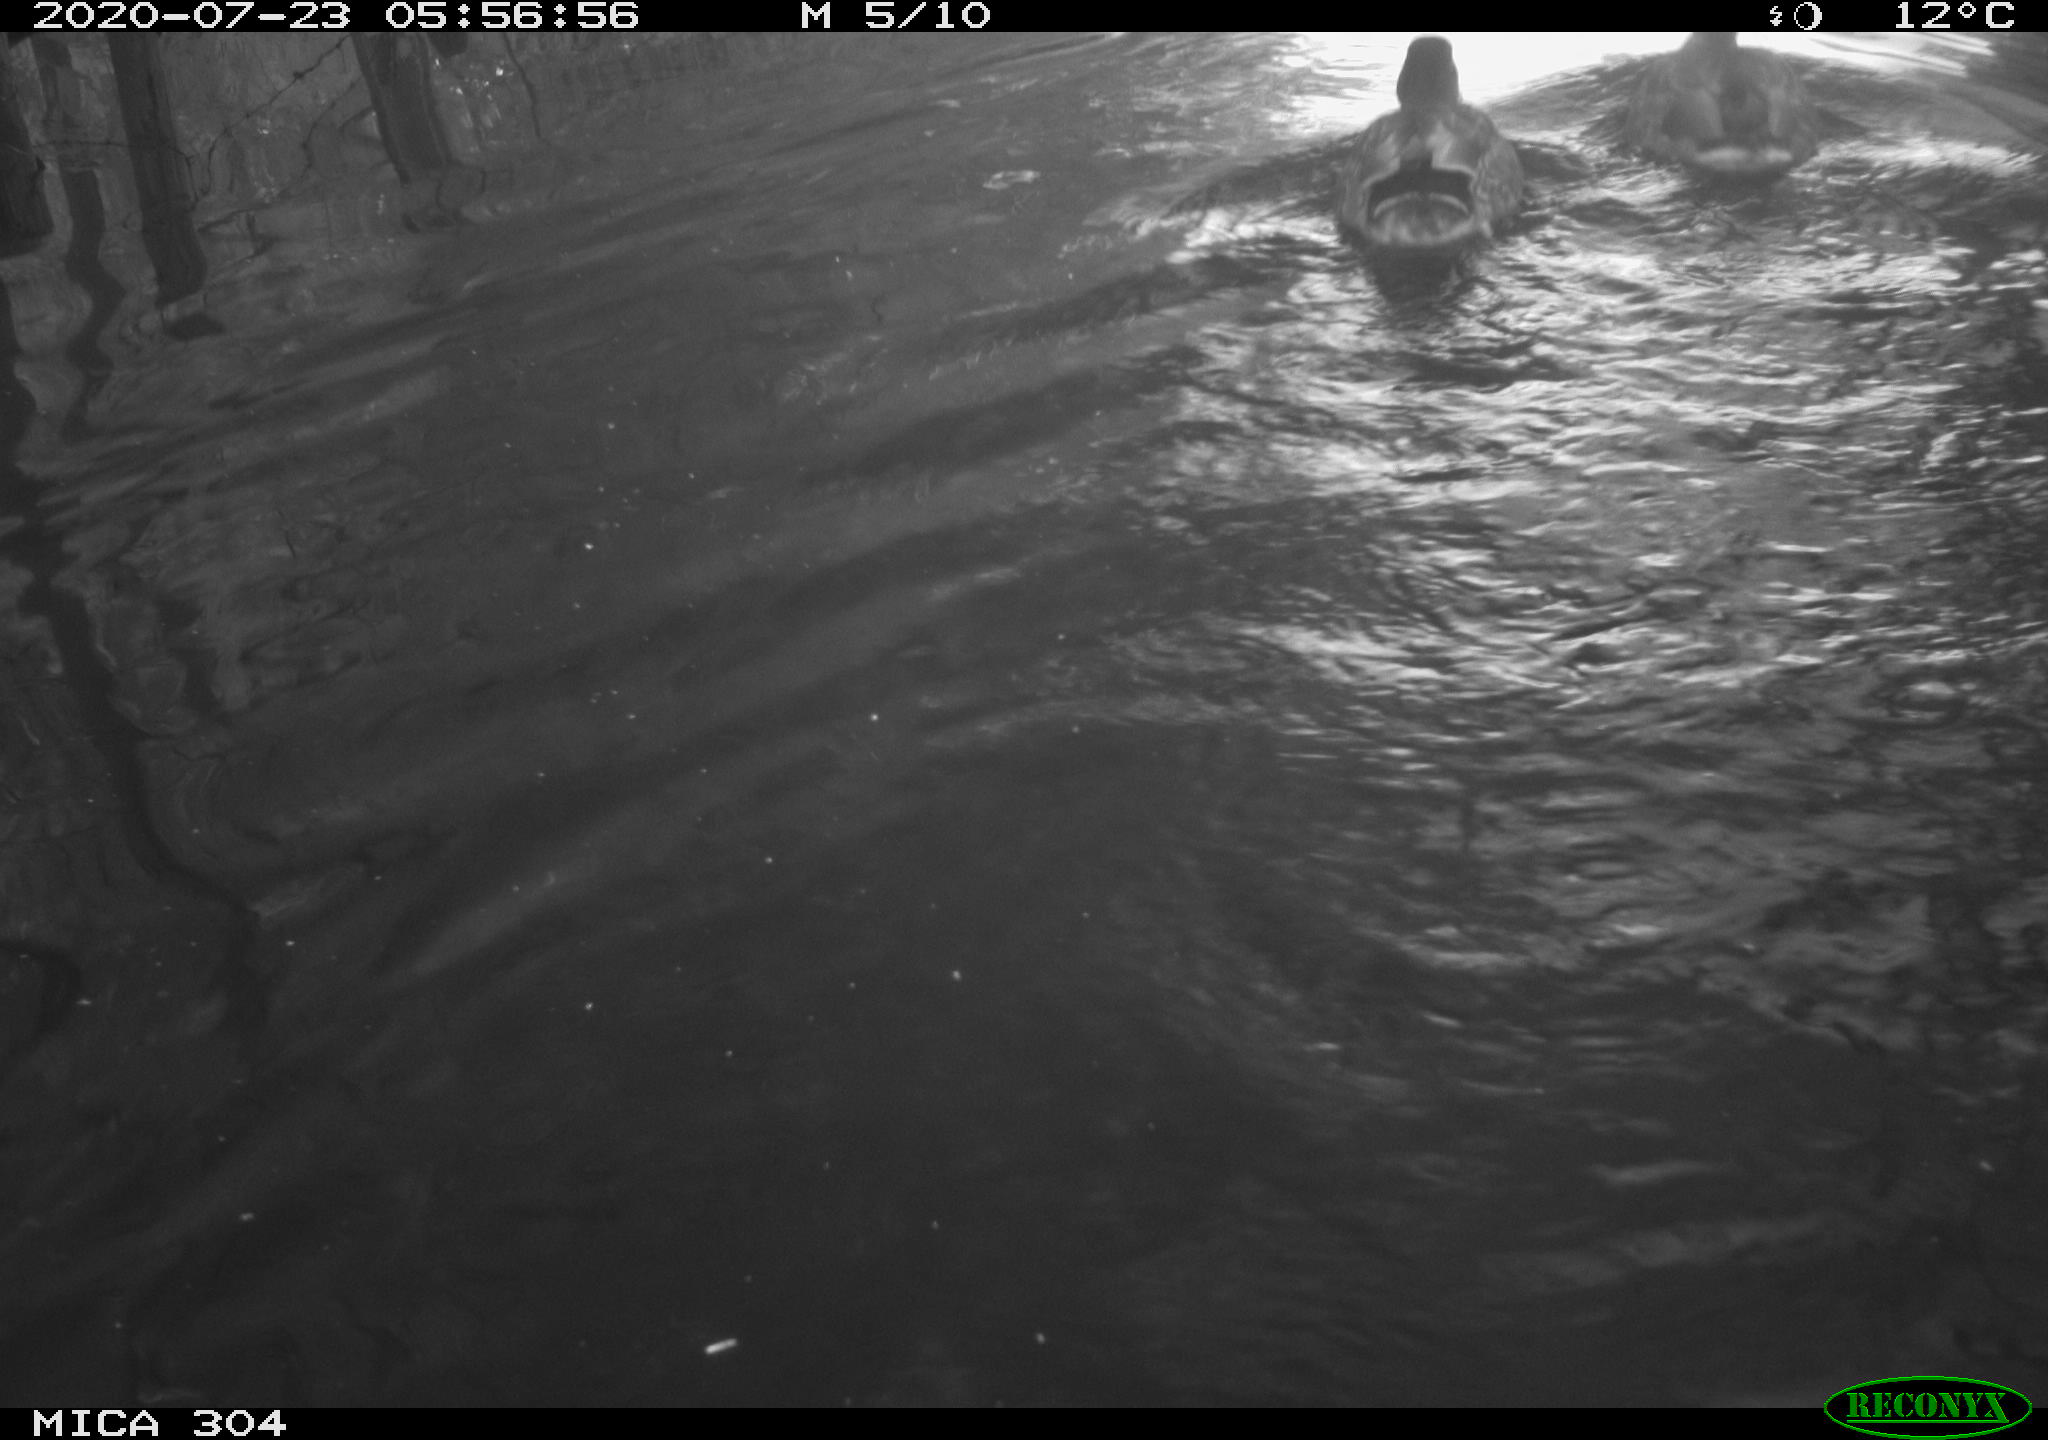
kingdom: Animalia
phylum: Chordata
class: Aves
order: Anseriformes
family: Anatidae
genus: Anas
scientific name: Anas platyrhynchos
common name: Mallard
